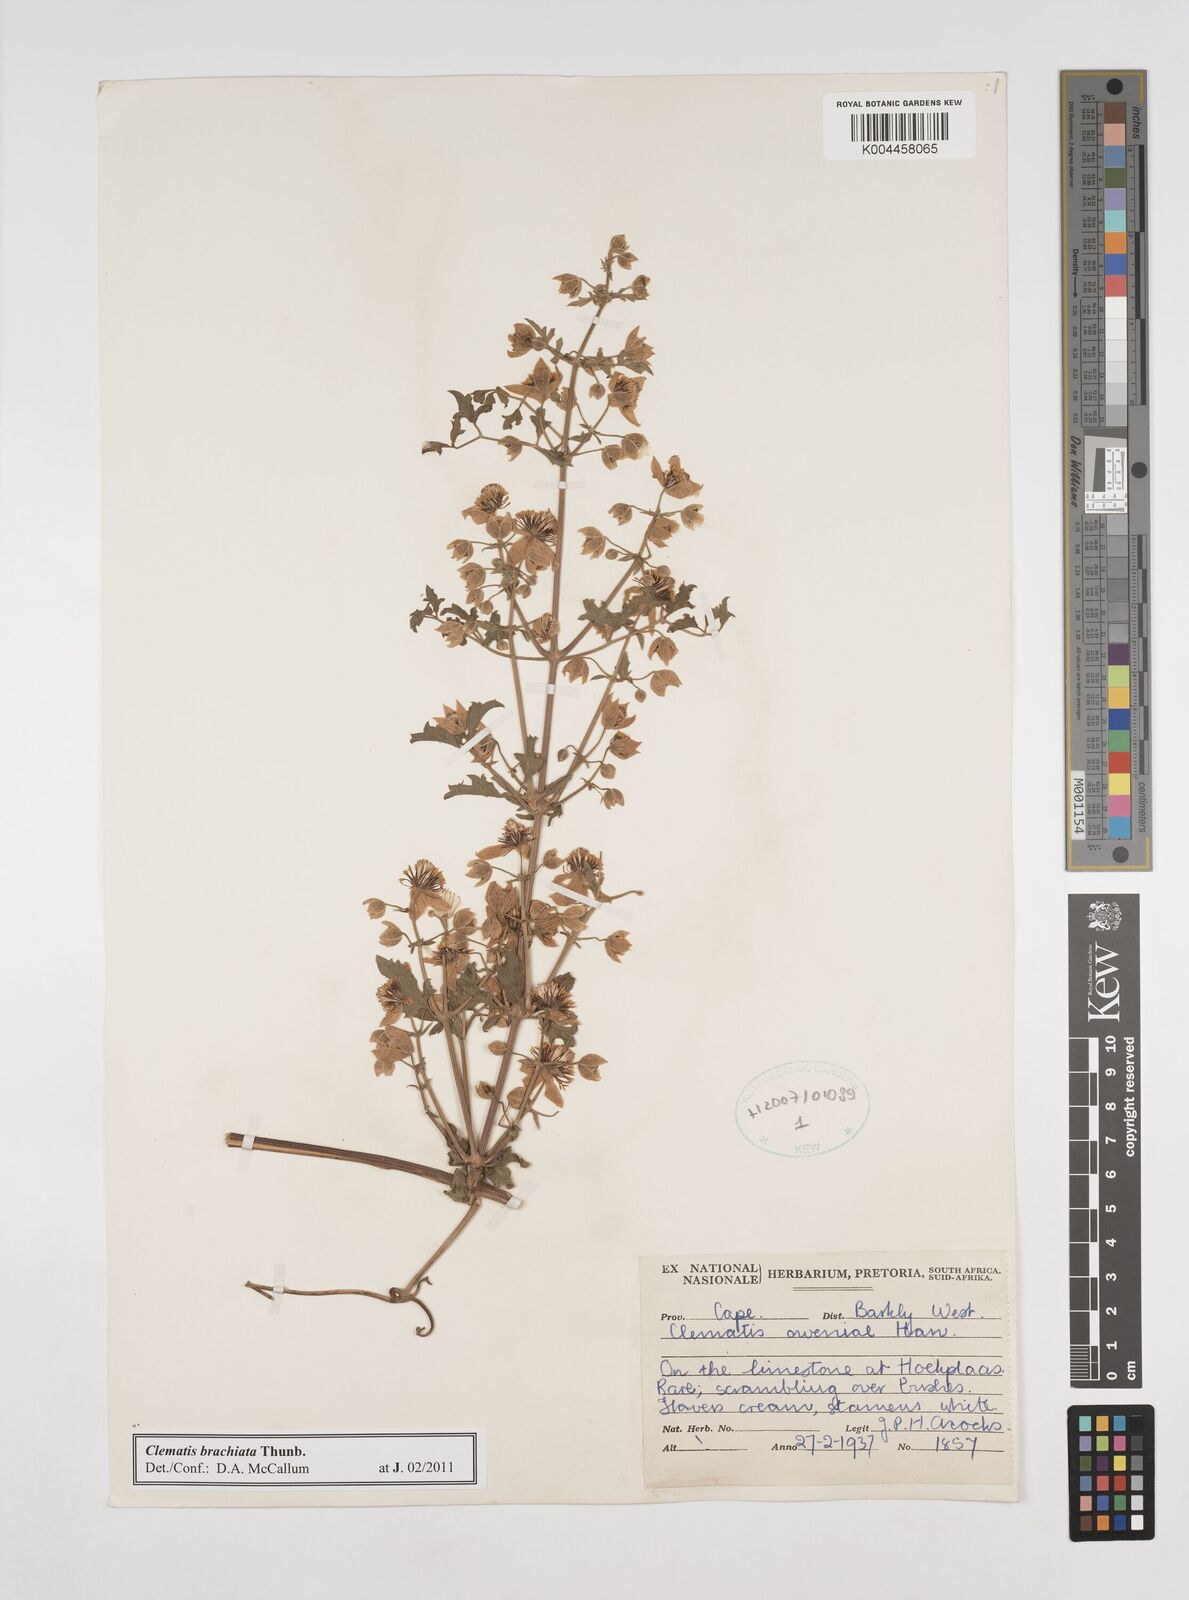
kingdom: Plantae
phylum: Tracheophyta
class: Magnoliopsida
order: Ranunculales
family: Ranunculaceae
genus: Clematis
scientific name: Clematis brachiata
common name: Traveler's-joy
